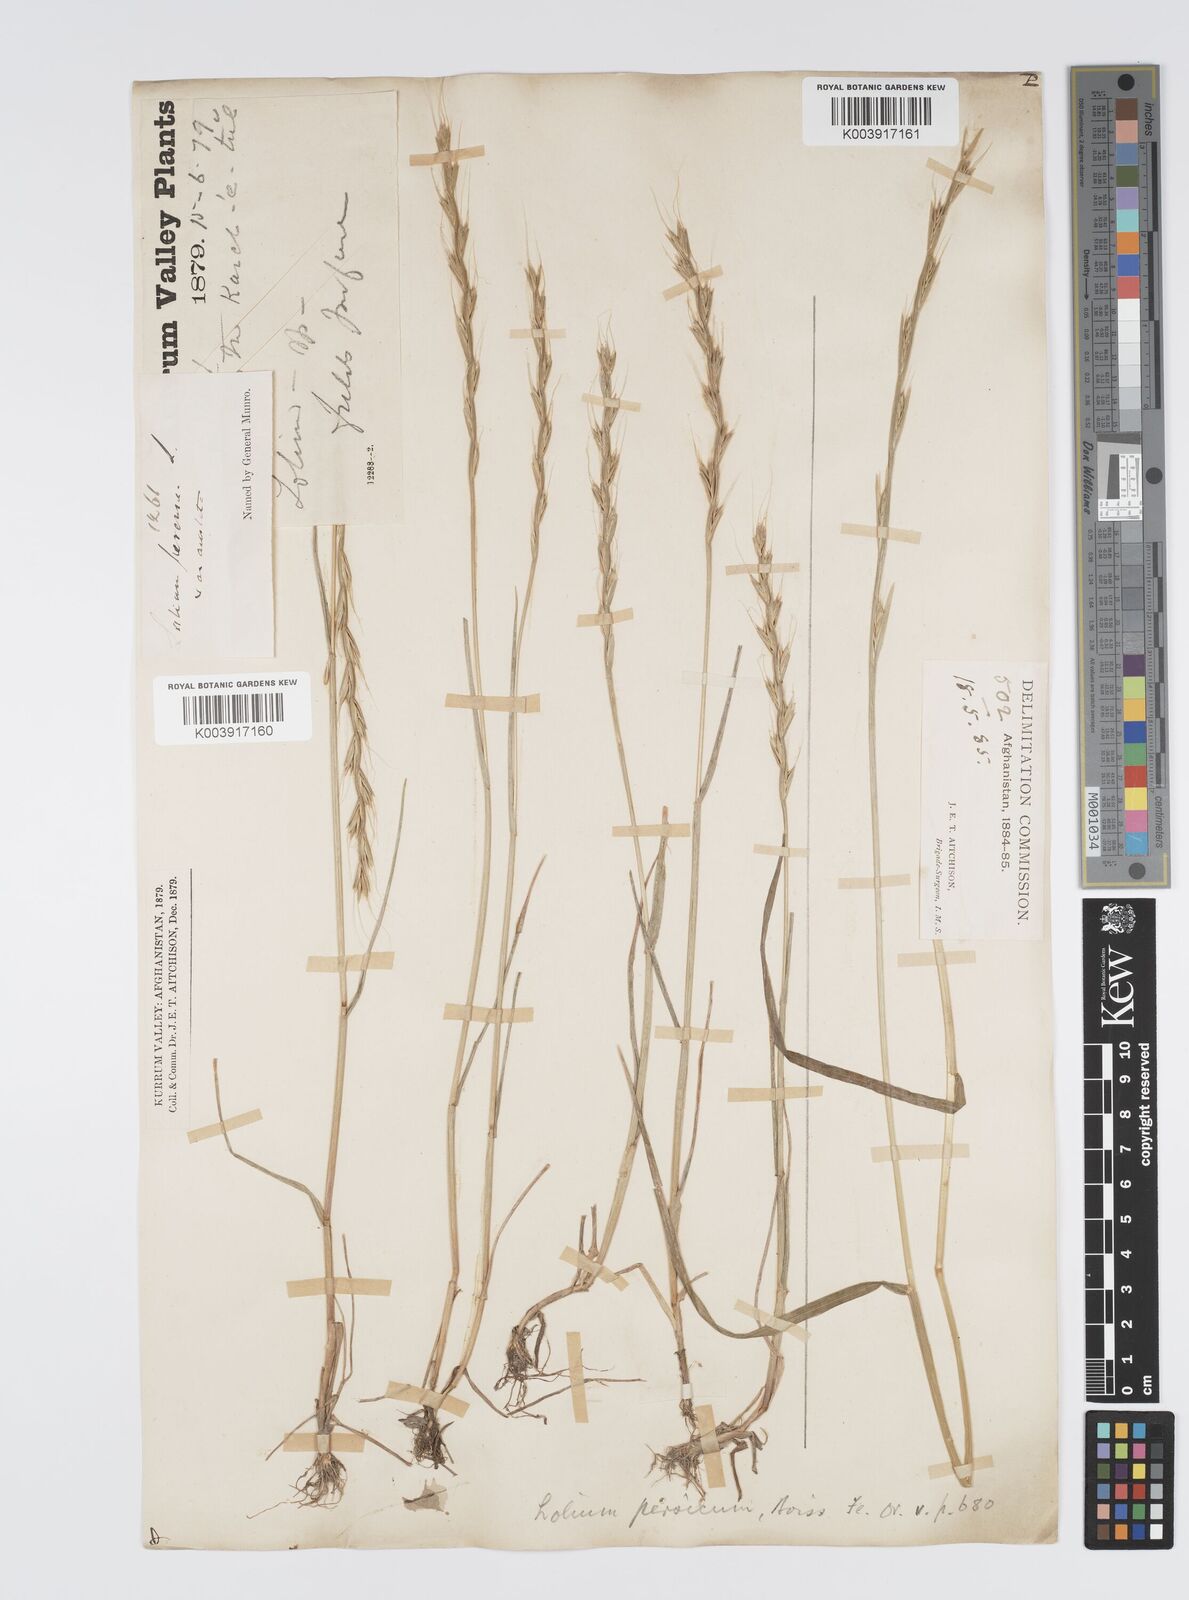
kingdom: Plantae
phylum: Tracheophyta
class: Liliopsida
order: Poales
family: Poaceae
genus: Lolium
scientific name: Lolium persicum
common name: Persian ryegrass
